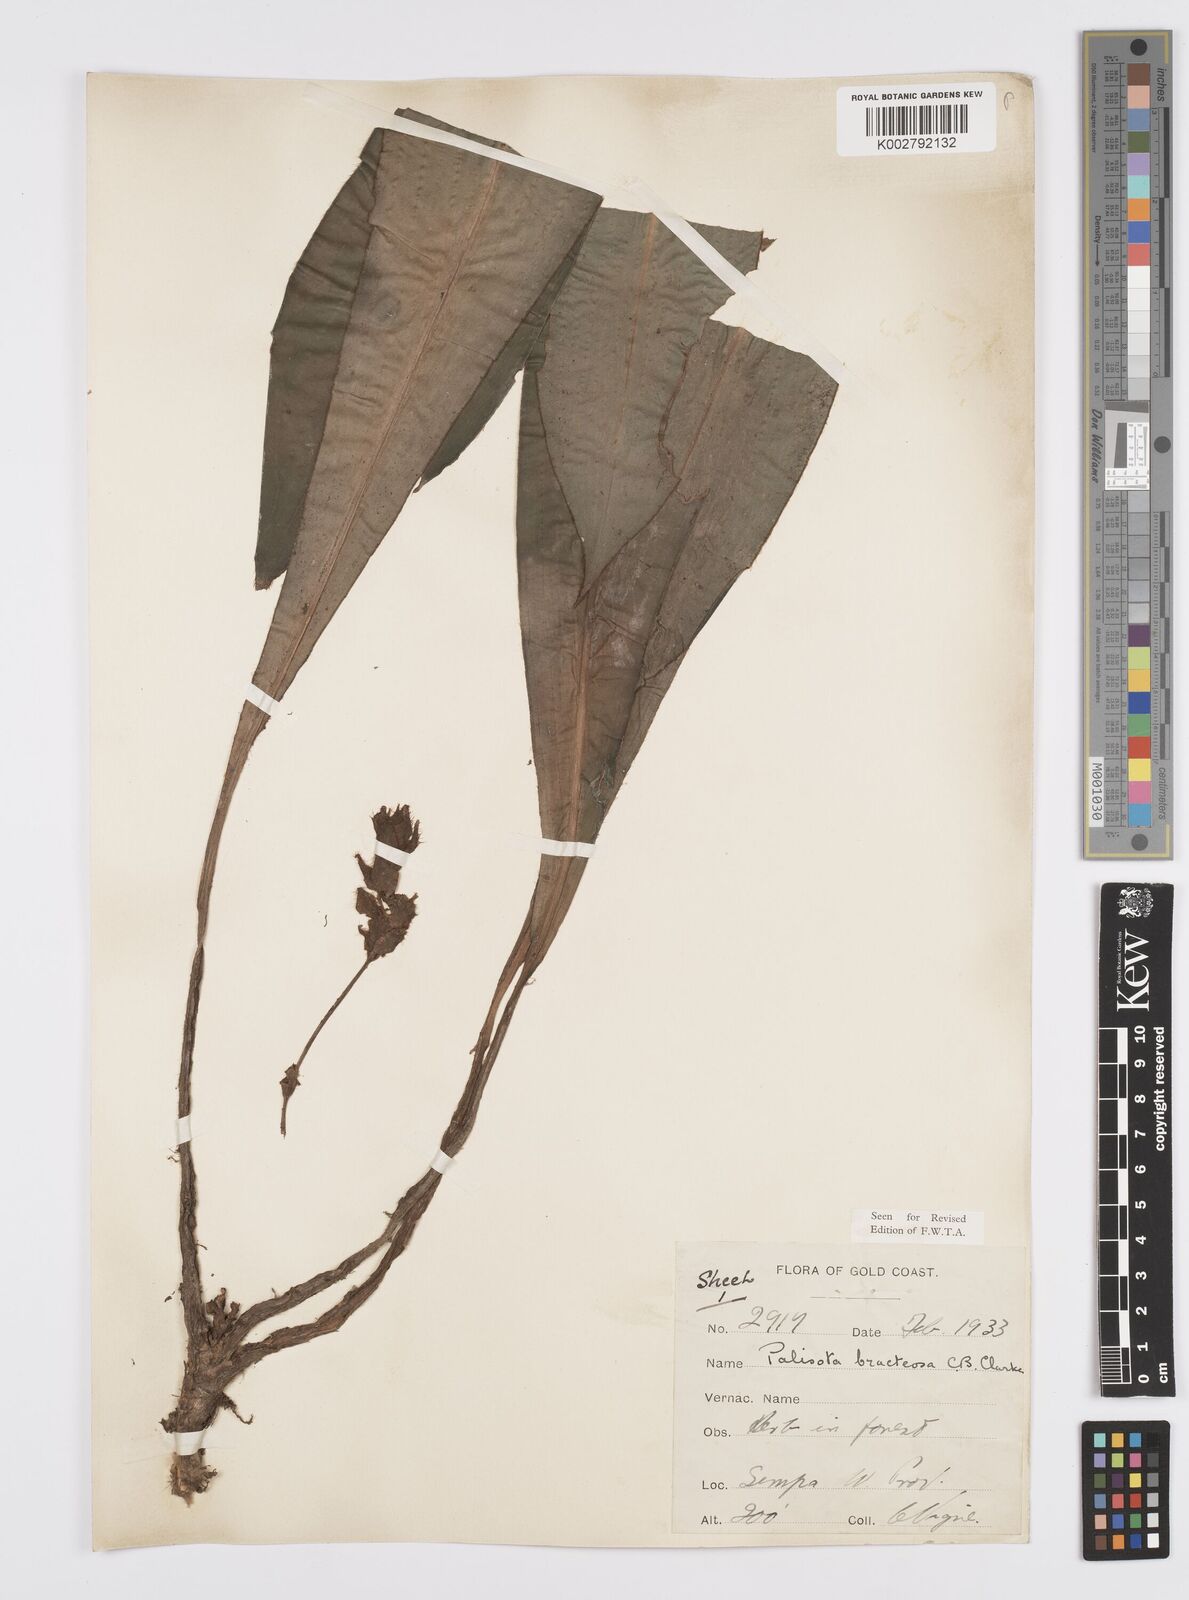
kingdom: Plantae
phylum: Tracheophyta
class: Liliopsida
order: Commelinales
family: Commelinaceae
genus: Palisota
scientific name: Palisota bracteosa
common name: Palisota
